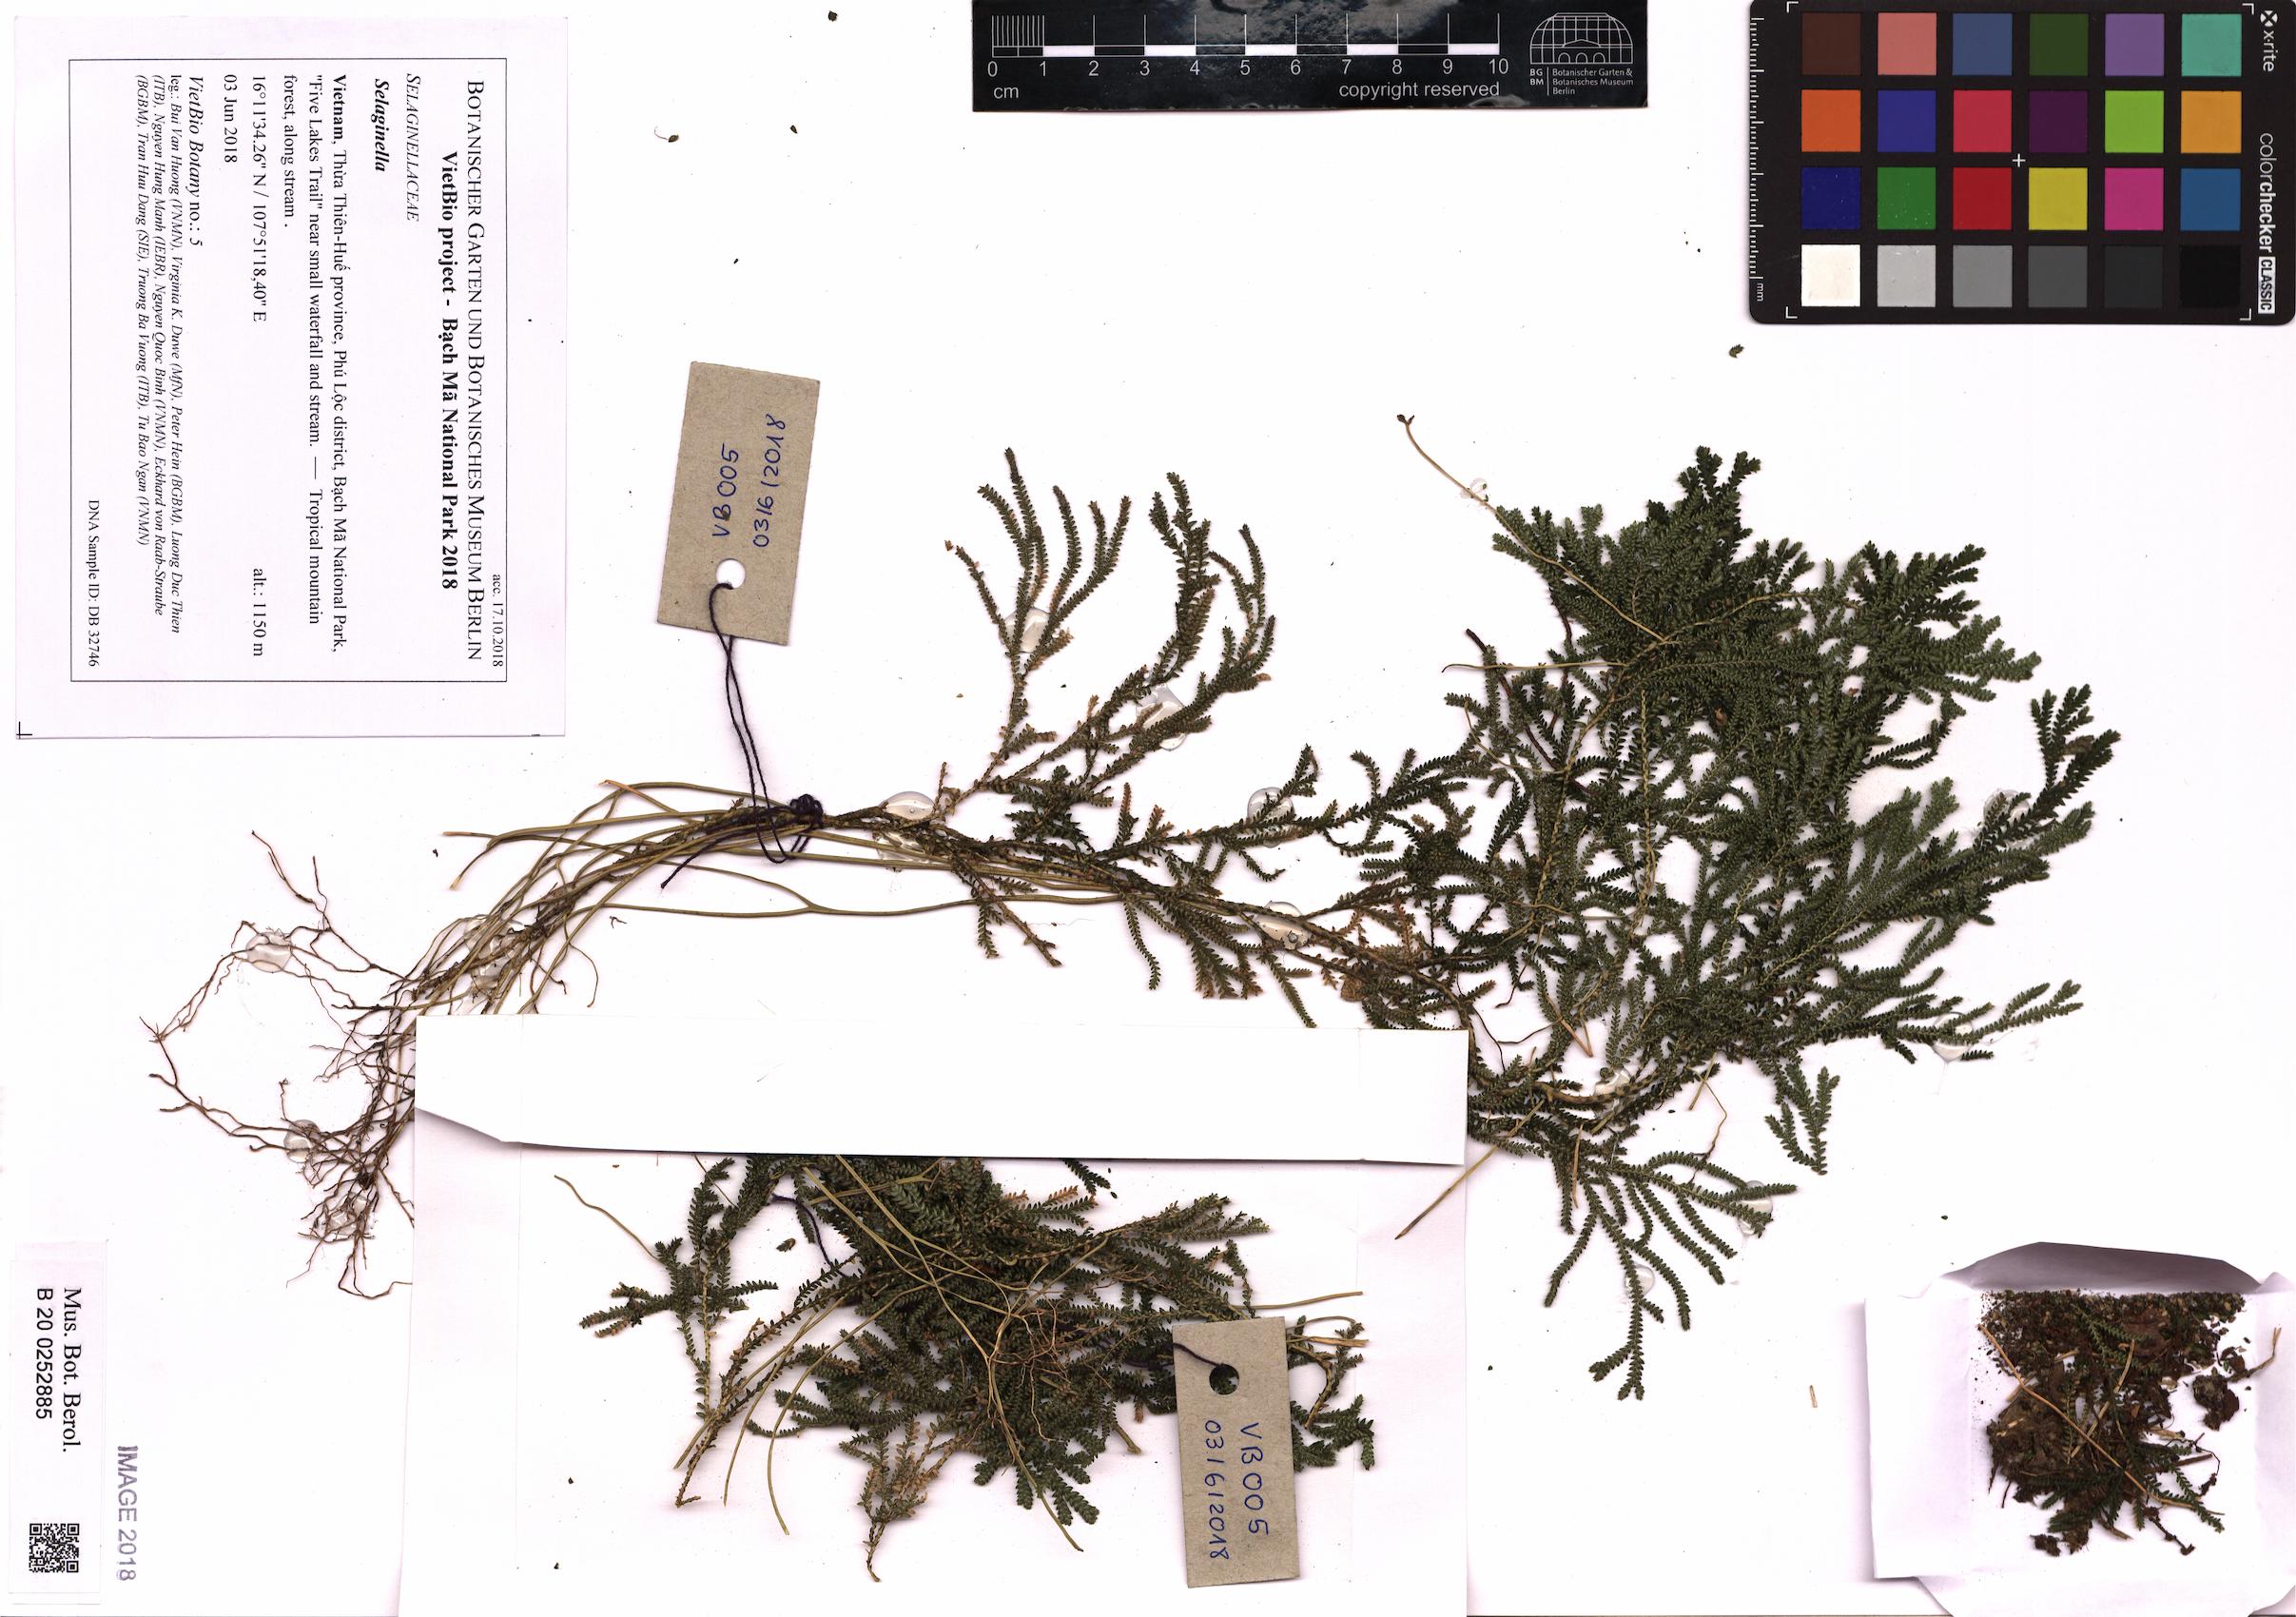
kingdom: Plantae
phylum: Tracheophyta
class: Lycopodiopsida
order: Selaginellales
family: Selaginellaceae
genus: Selaginella
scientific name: Selaginella
